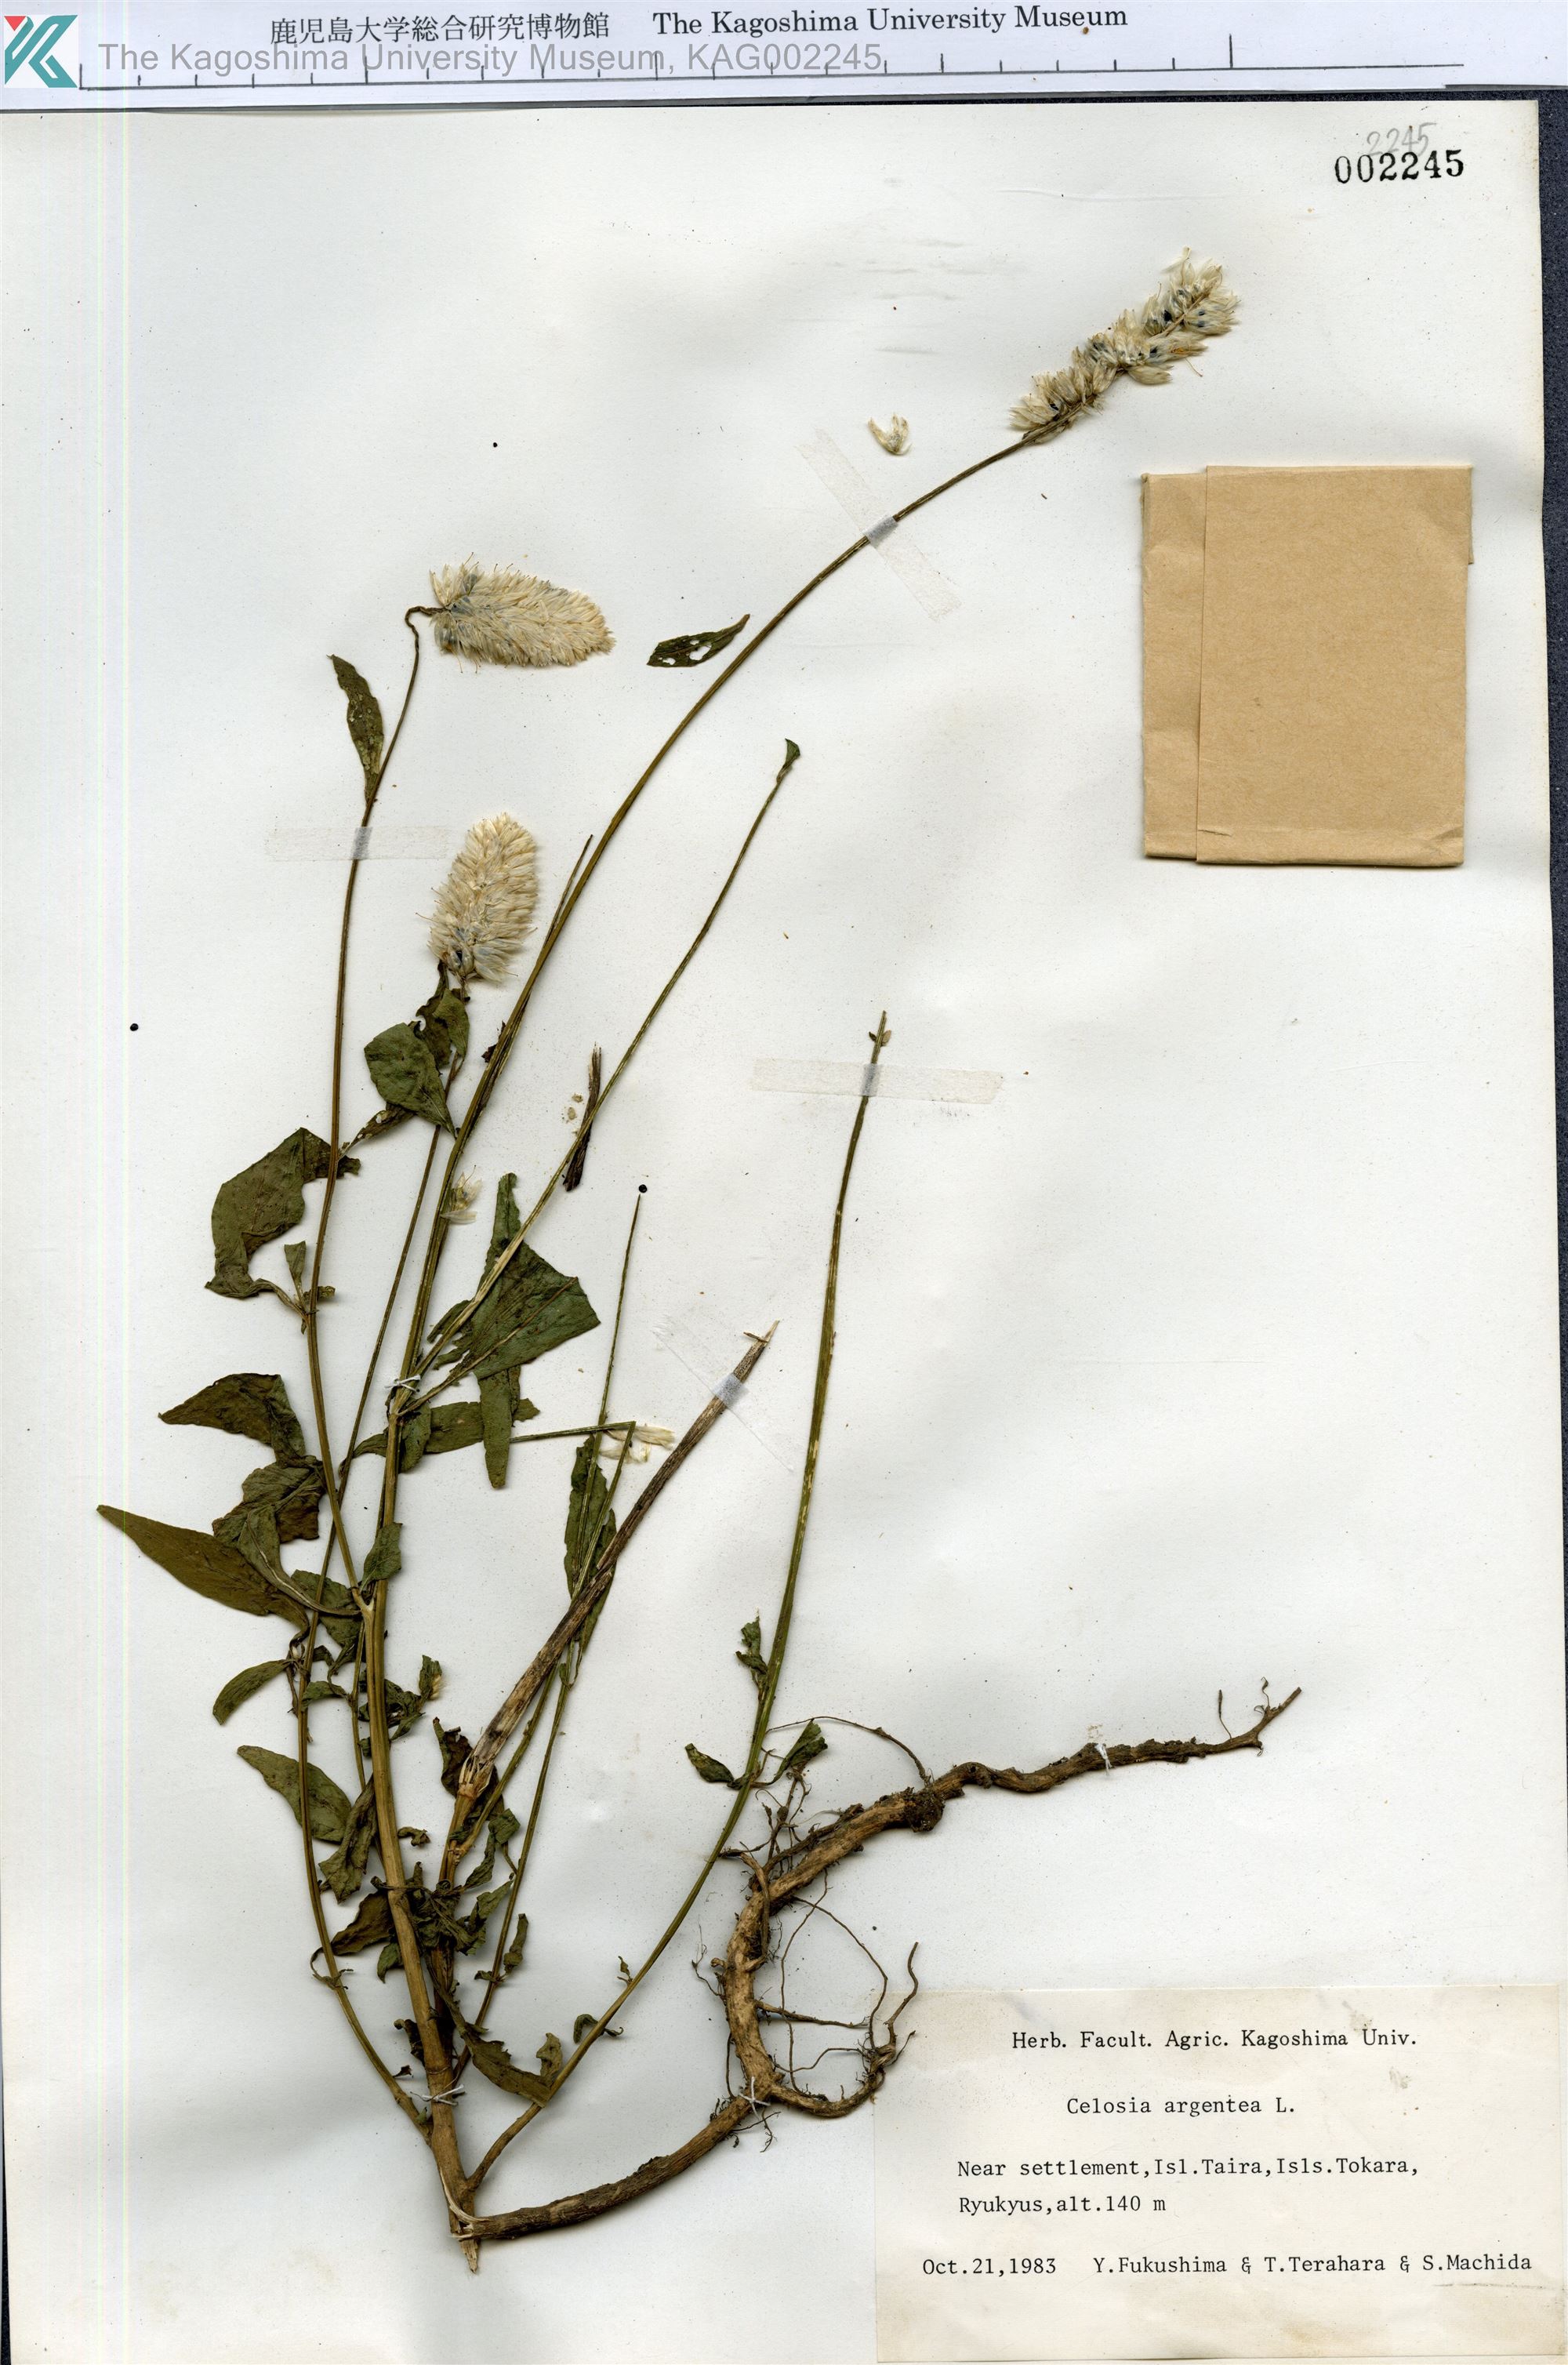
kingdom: Plantae
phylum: Tracheophyta
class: Magnoliopsida
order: Caryophyllales
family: Amaranthaceae
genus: Celosia
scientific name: Celosia argentea
